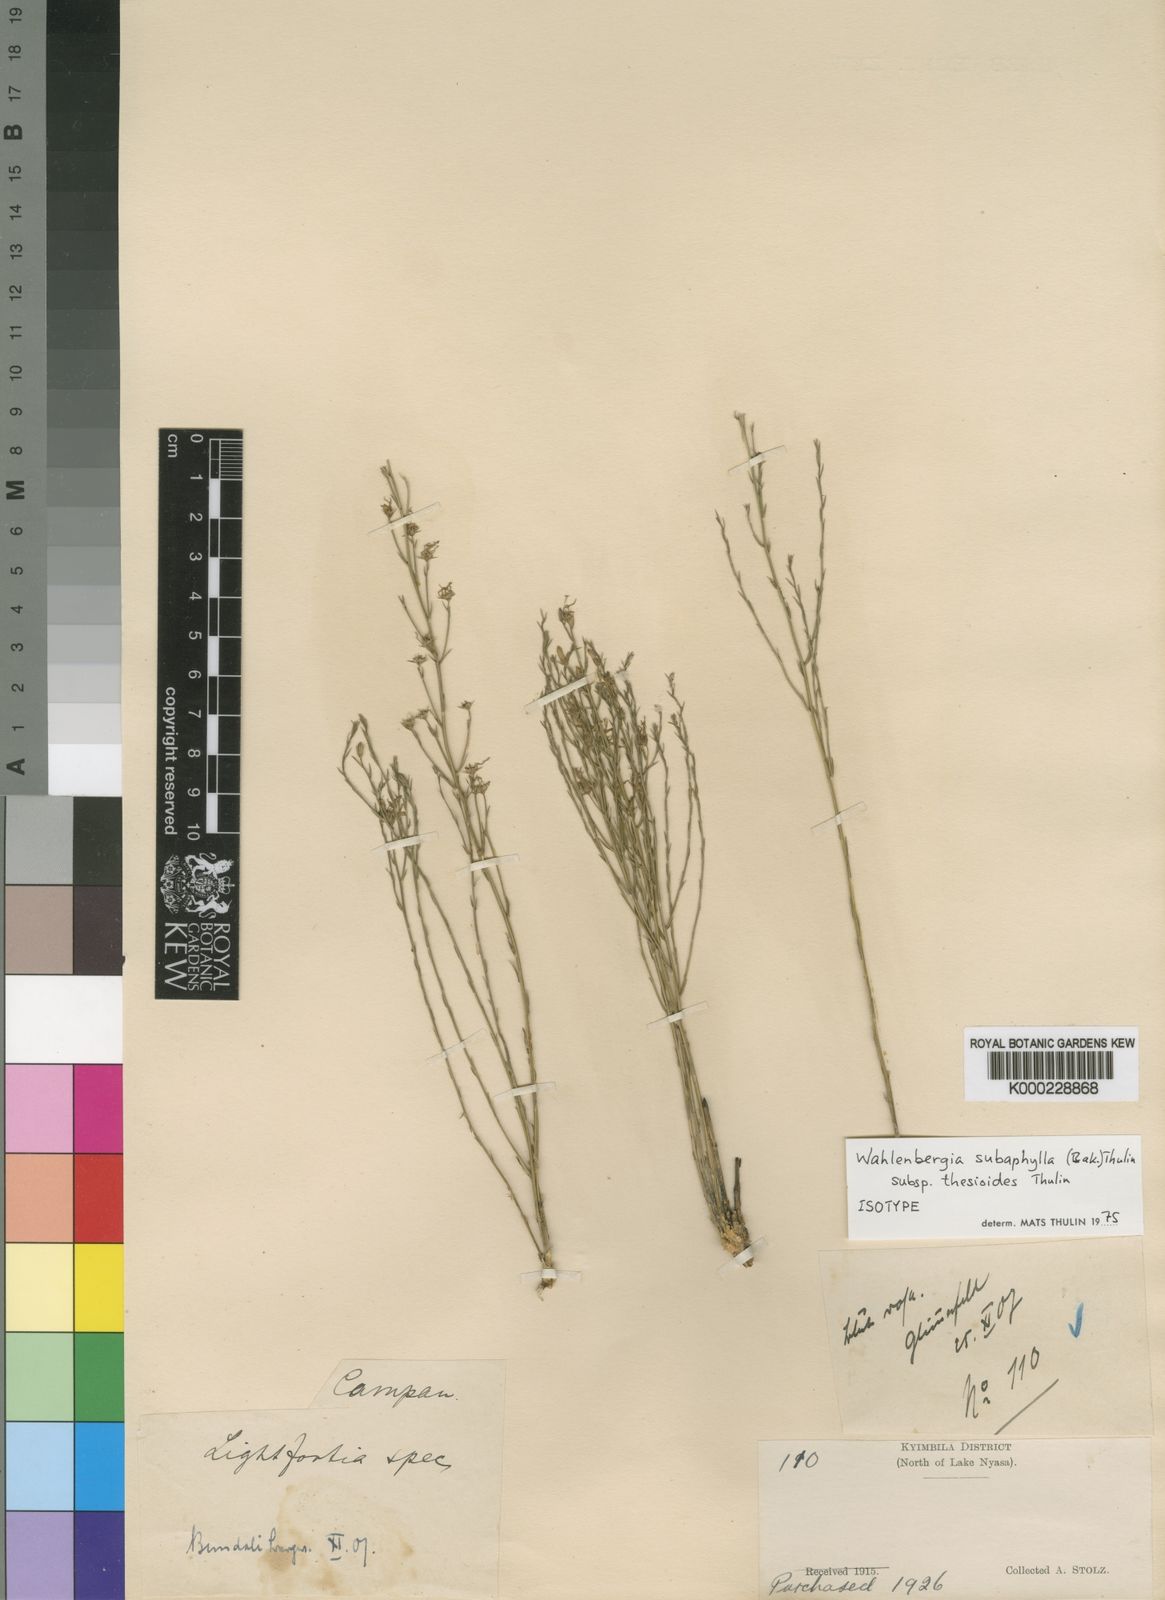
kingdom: Plantae
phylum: Tracheophyta
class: Magnoliopsida
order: Asterales
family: Campanulaceae
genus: Wahlenbergia
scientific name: Wahlenbergia subaphylla
